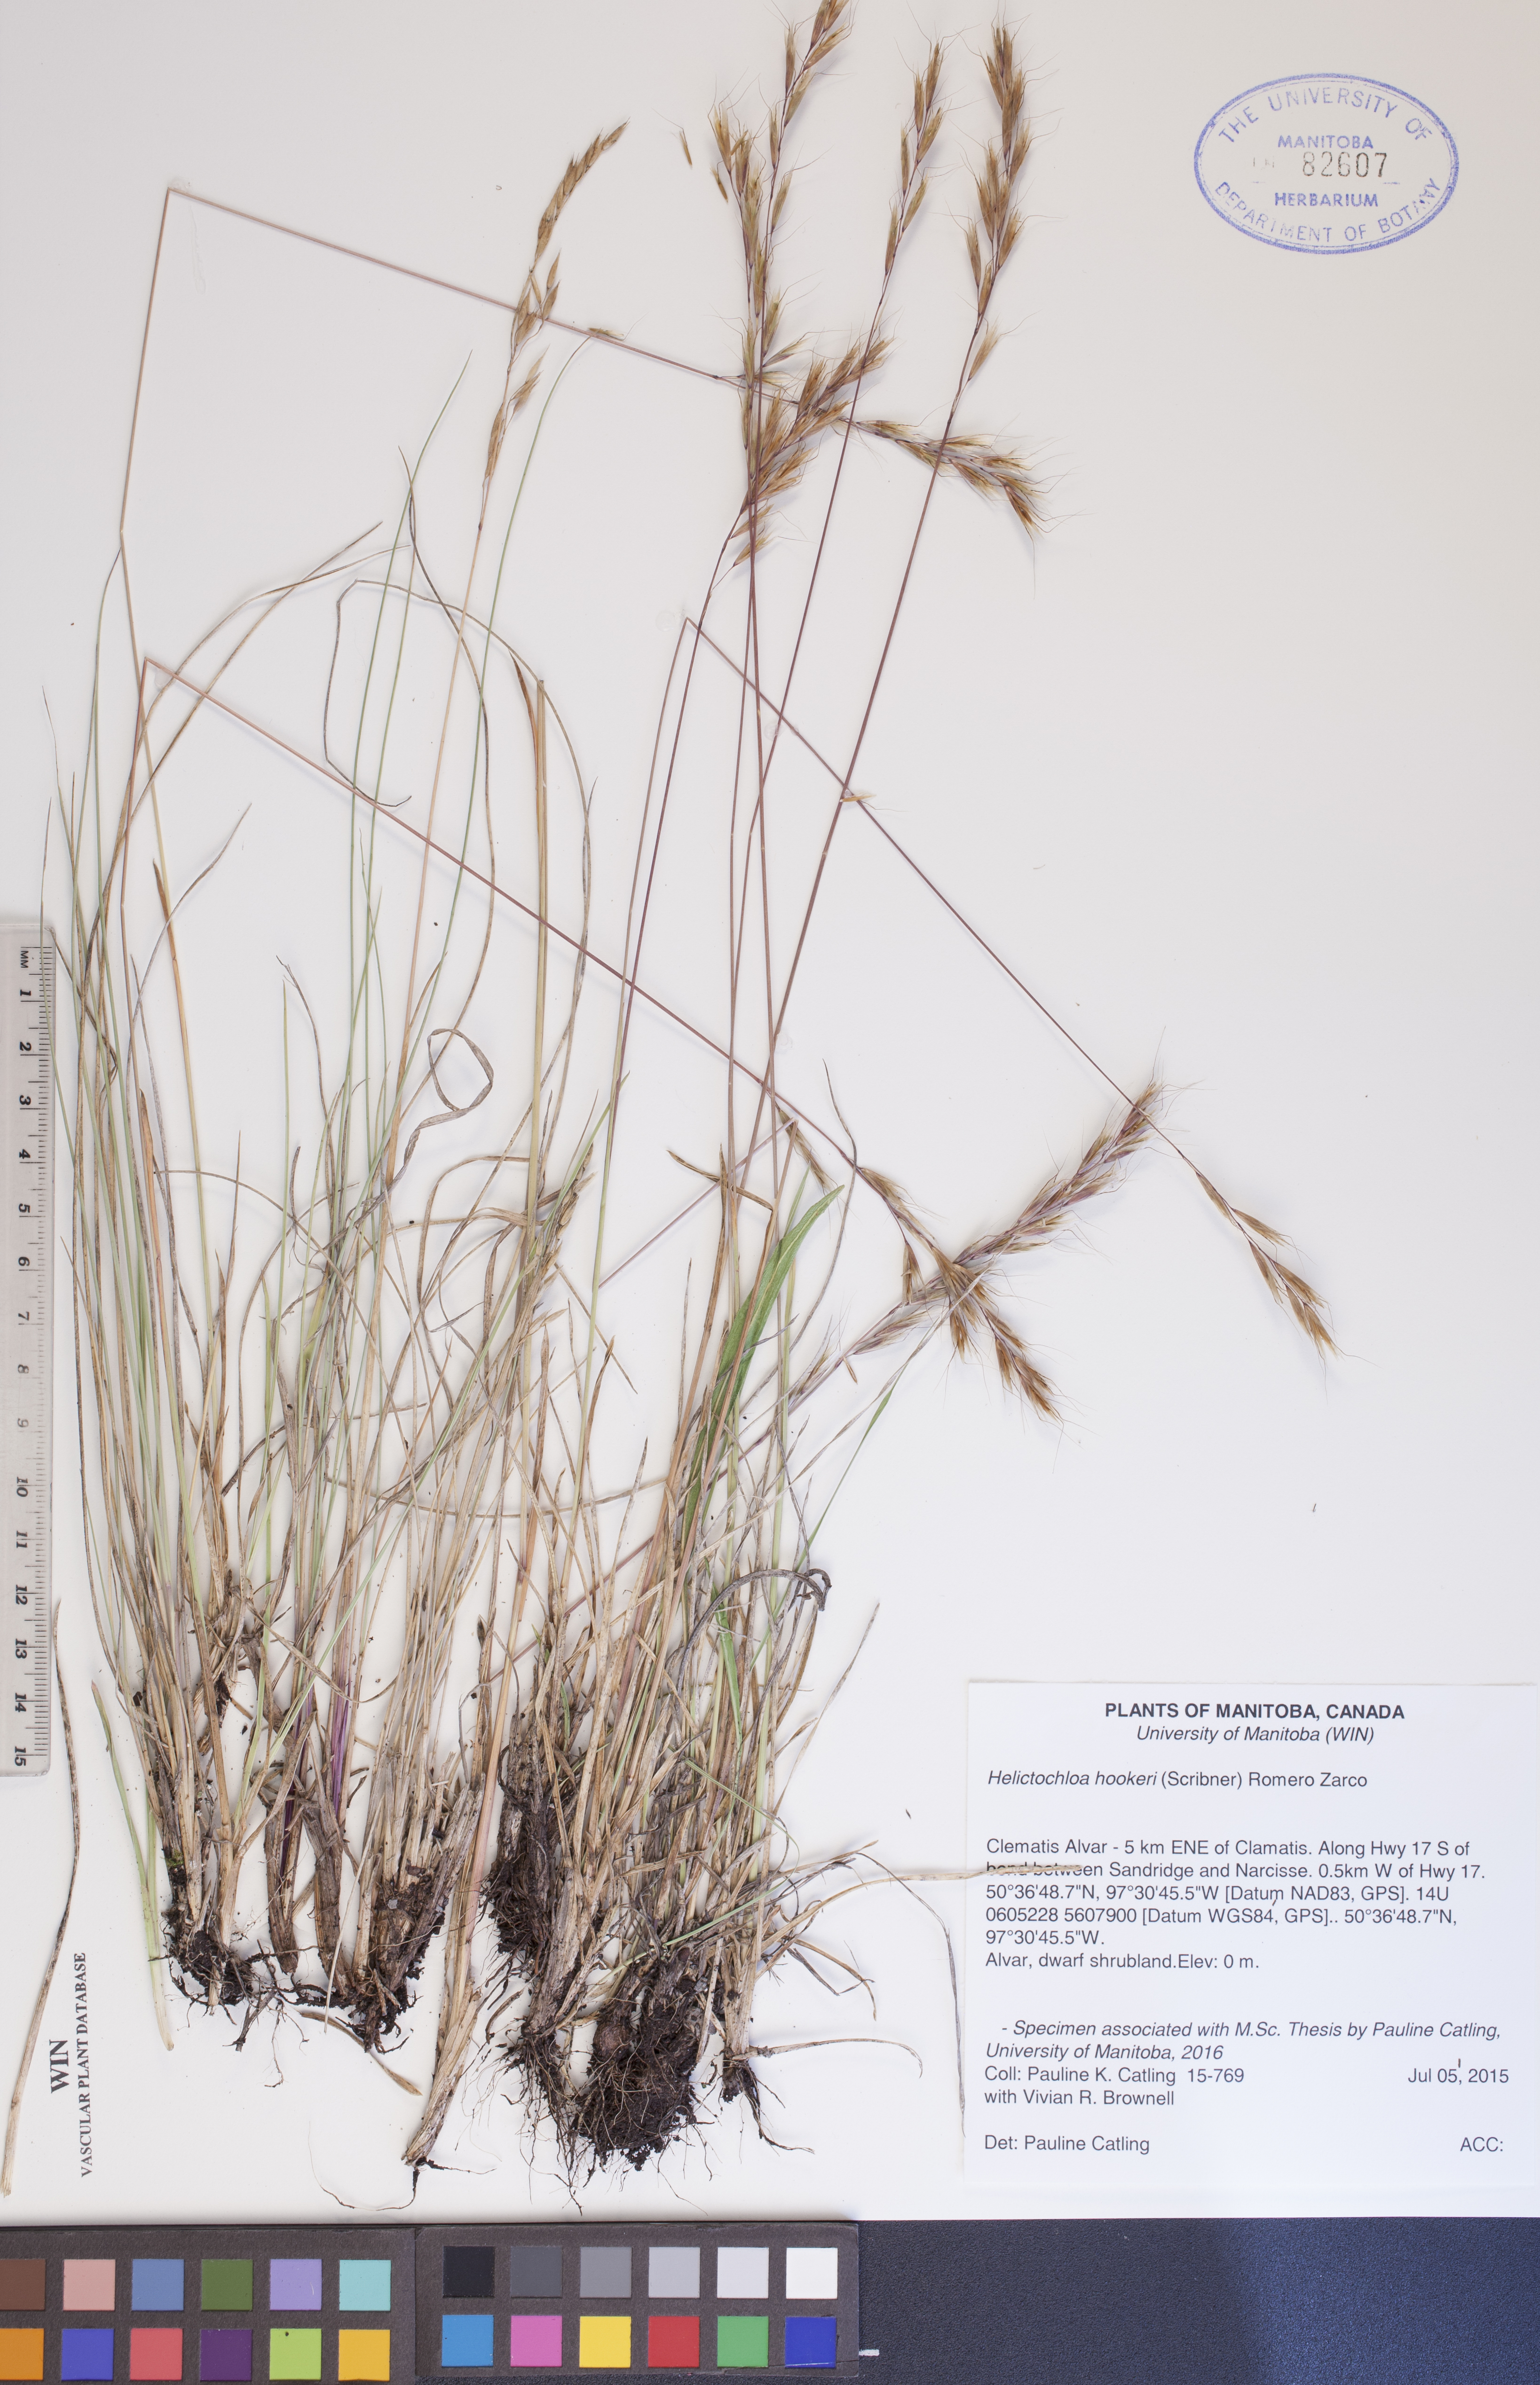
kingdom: Plantae
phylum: Tracheophyta
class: Liliopsida
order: Poales
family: Poaceae
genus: Helictochloa
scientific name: Helictochloa hookeri
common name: Hooker's alpine oatgrass
